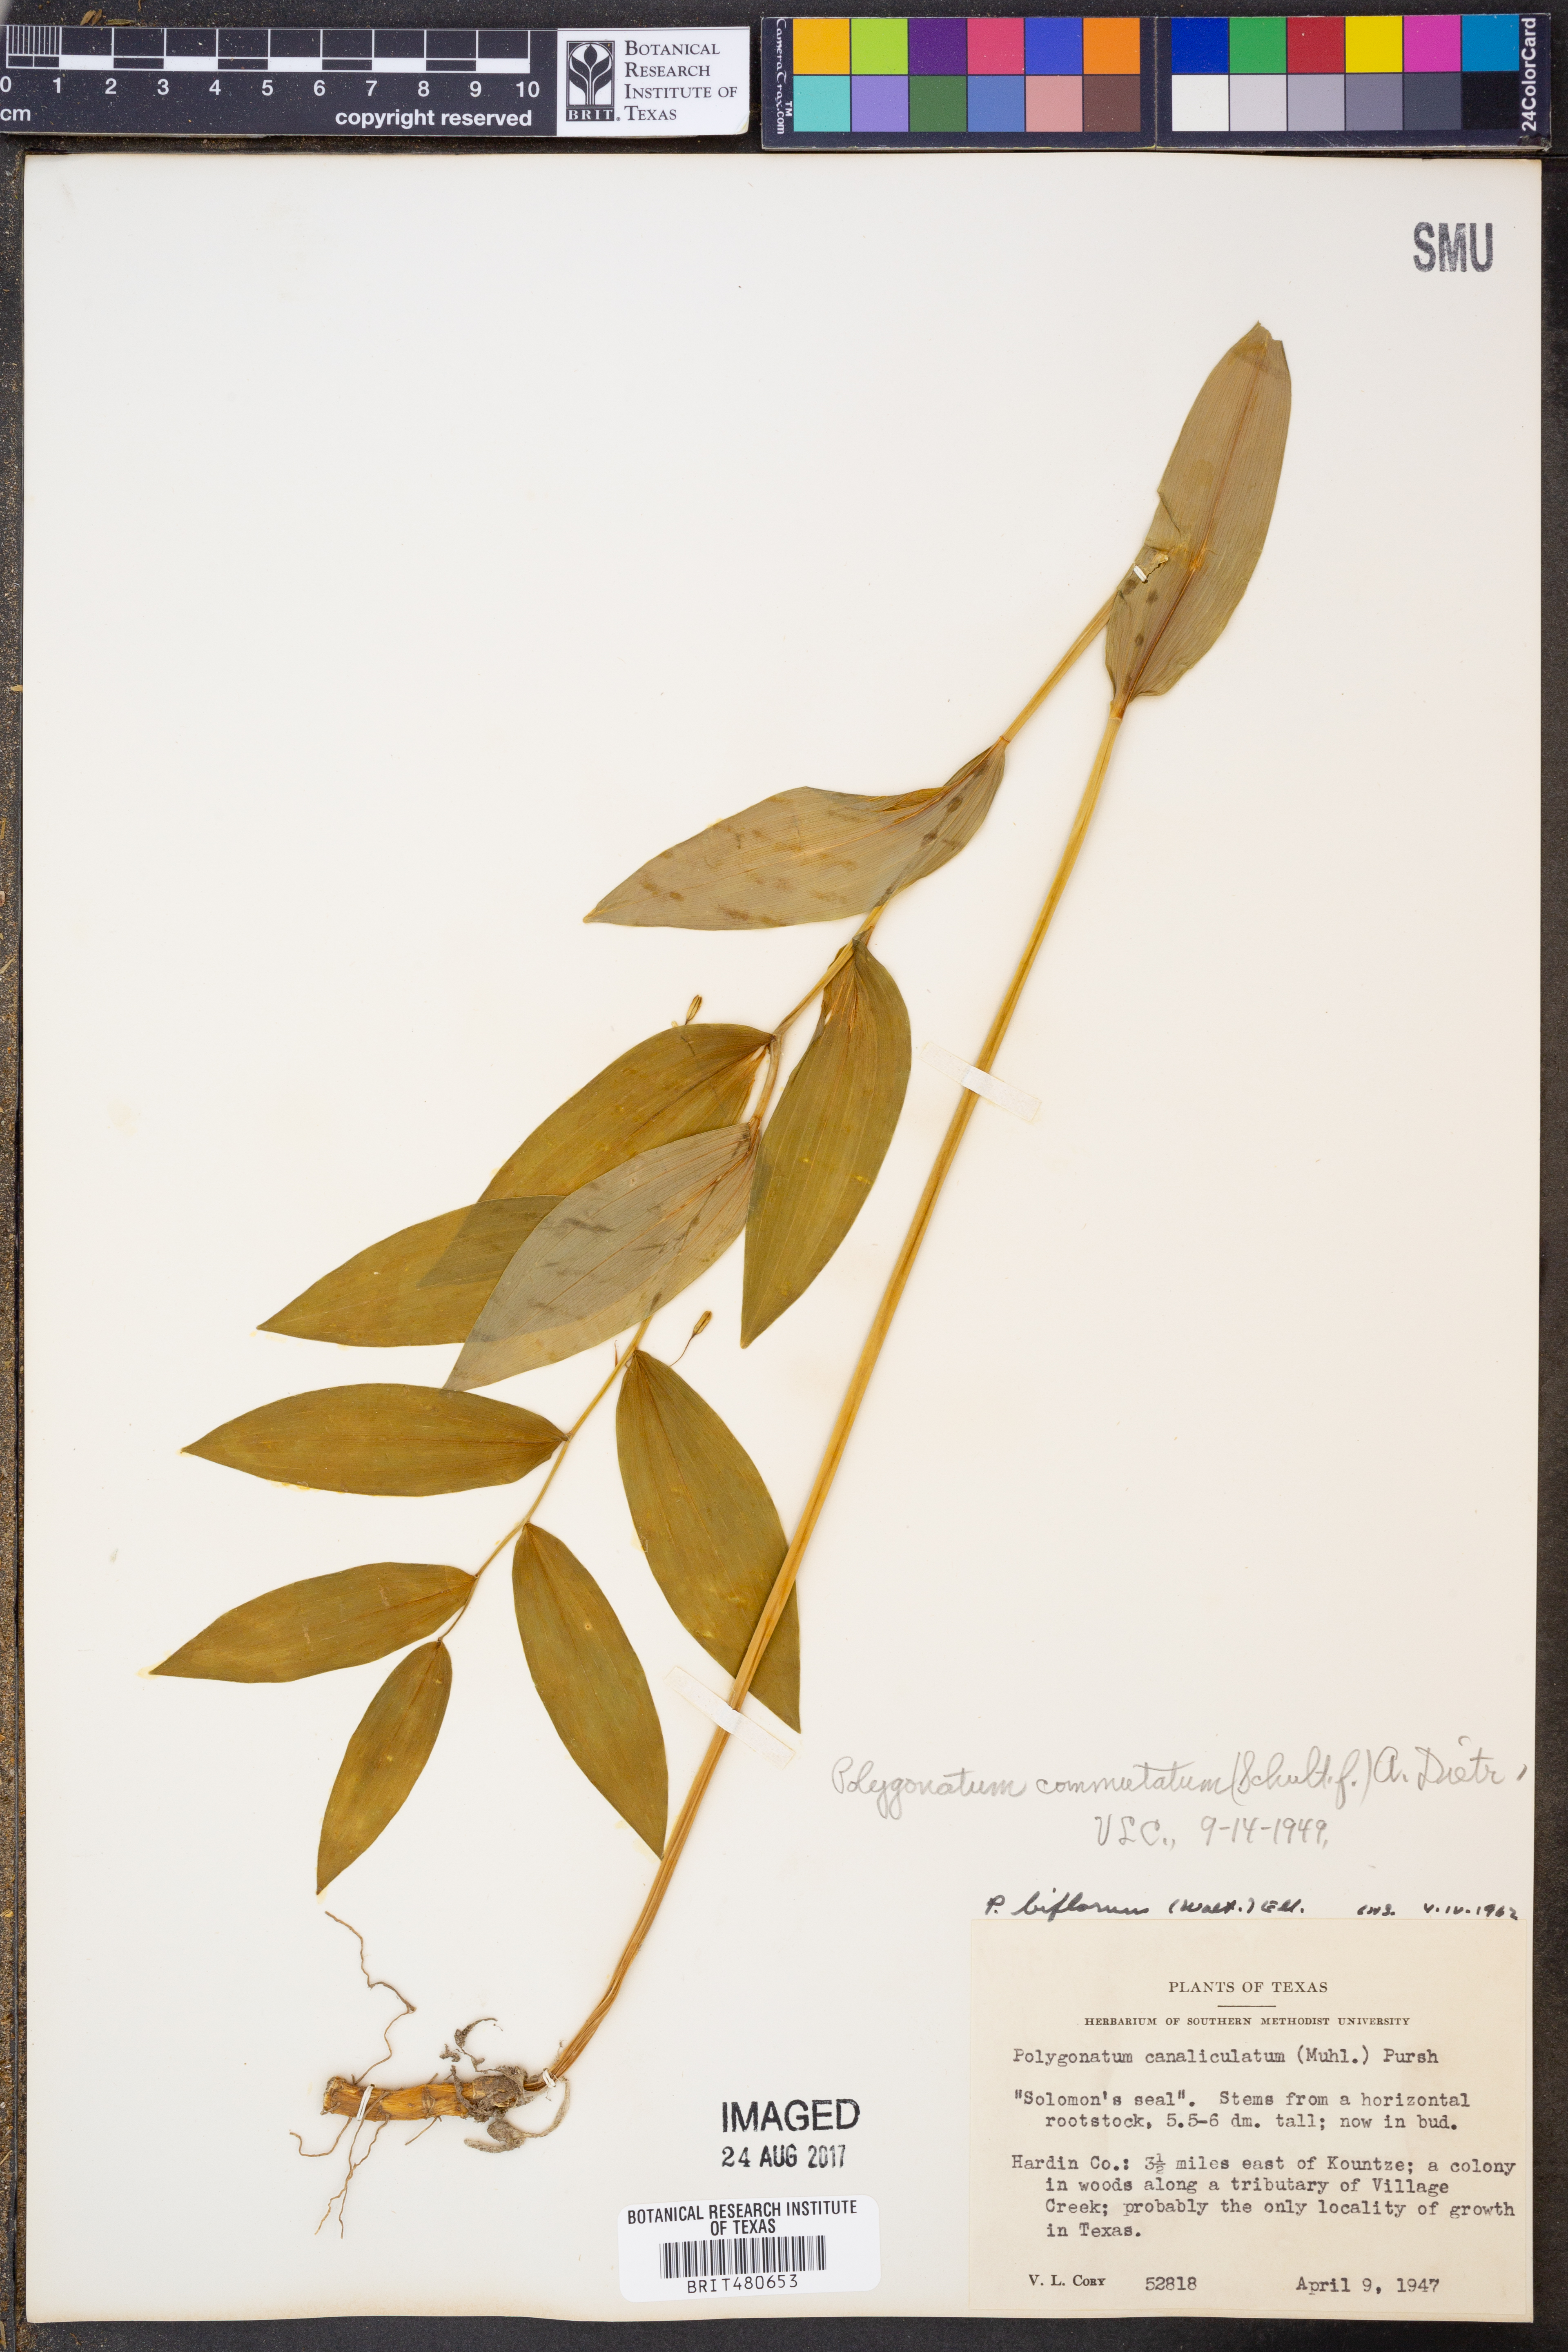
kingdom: Plantae
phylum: Tracheophyta
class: Liliopsida
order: Asparagales
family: Asparagaceae
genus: Polygonatum
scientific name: Polygonatum biflorum
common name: American solomon's-seal
